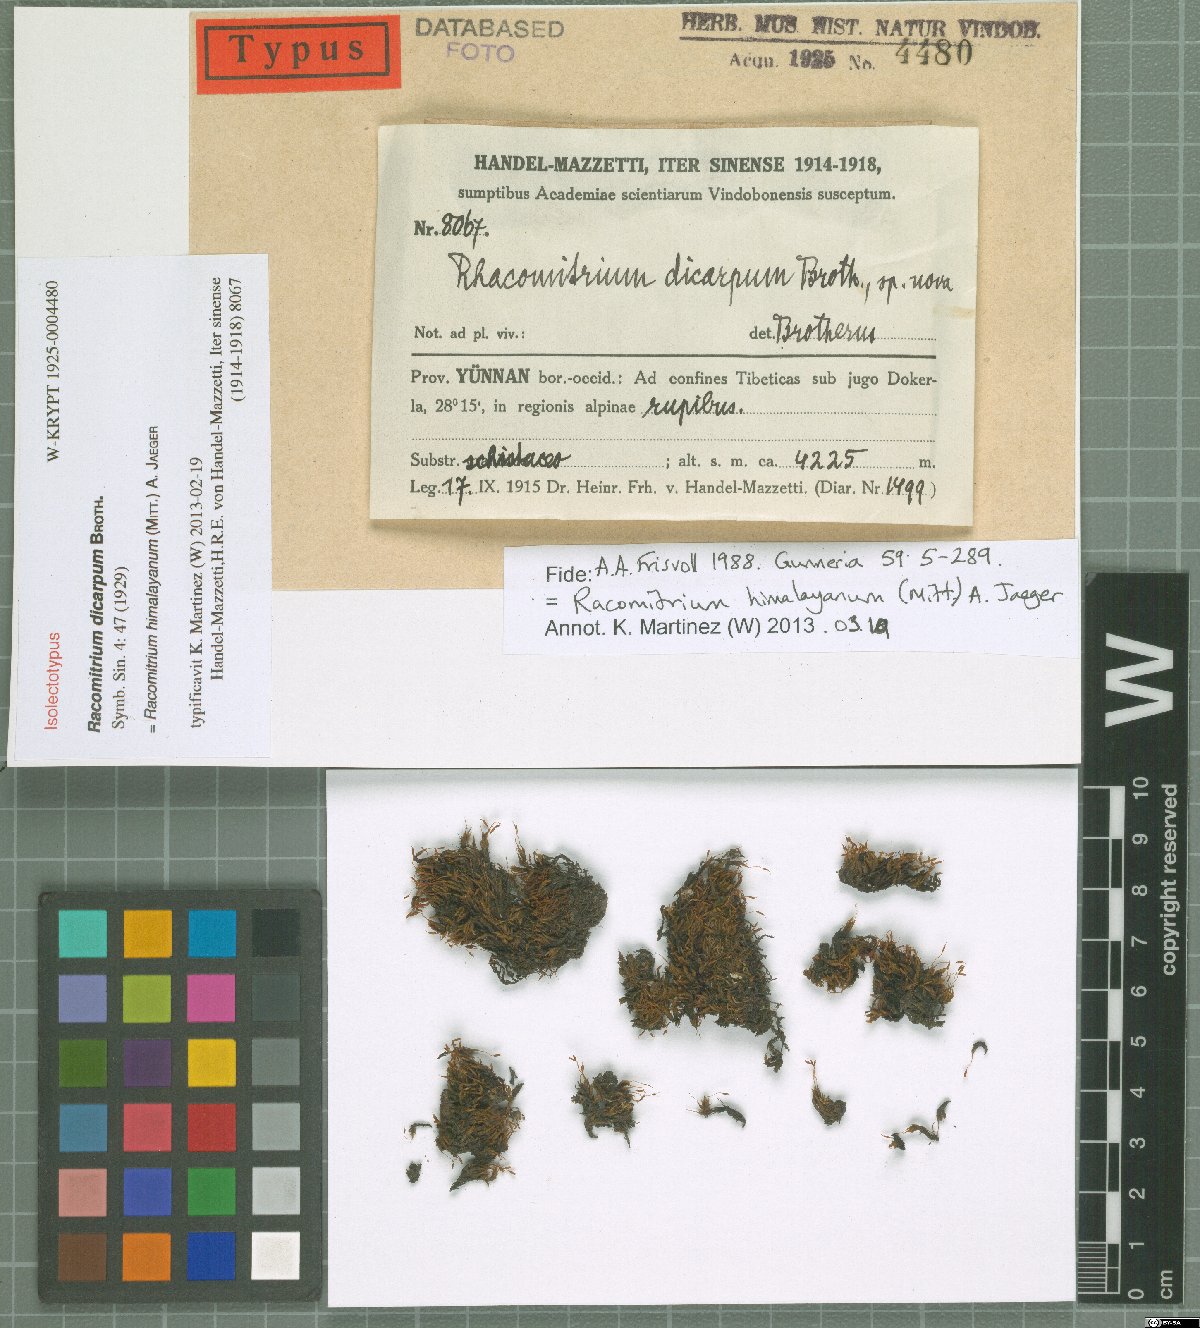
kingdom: Plantae
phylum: Bryophyta
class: Bryopsida
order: Grimmiales
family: Grimmiaceae
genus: Bucklandiella
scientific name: Bucklandiella himalayana
